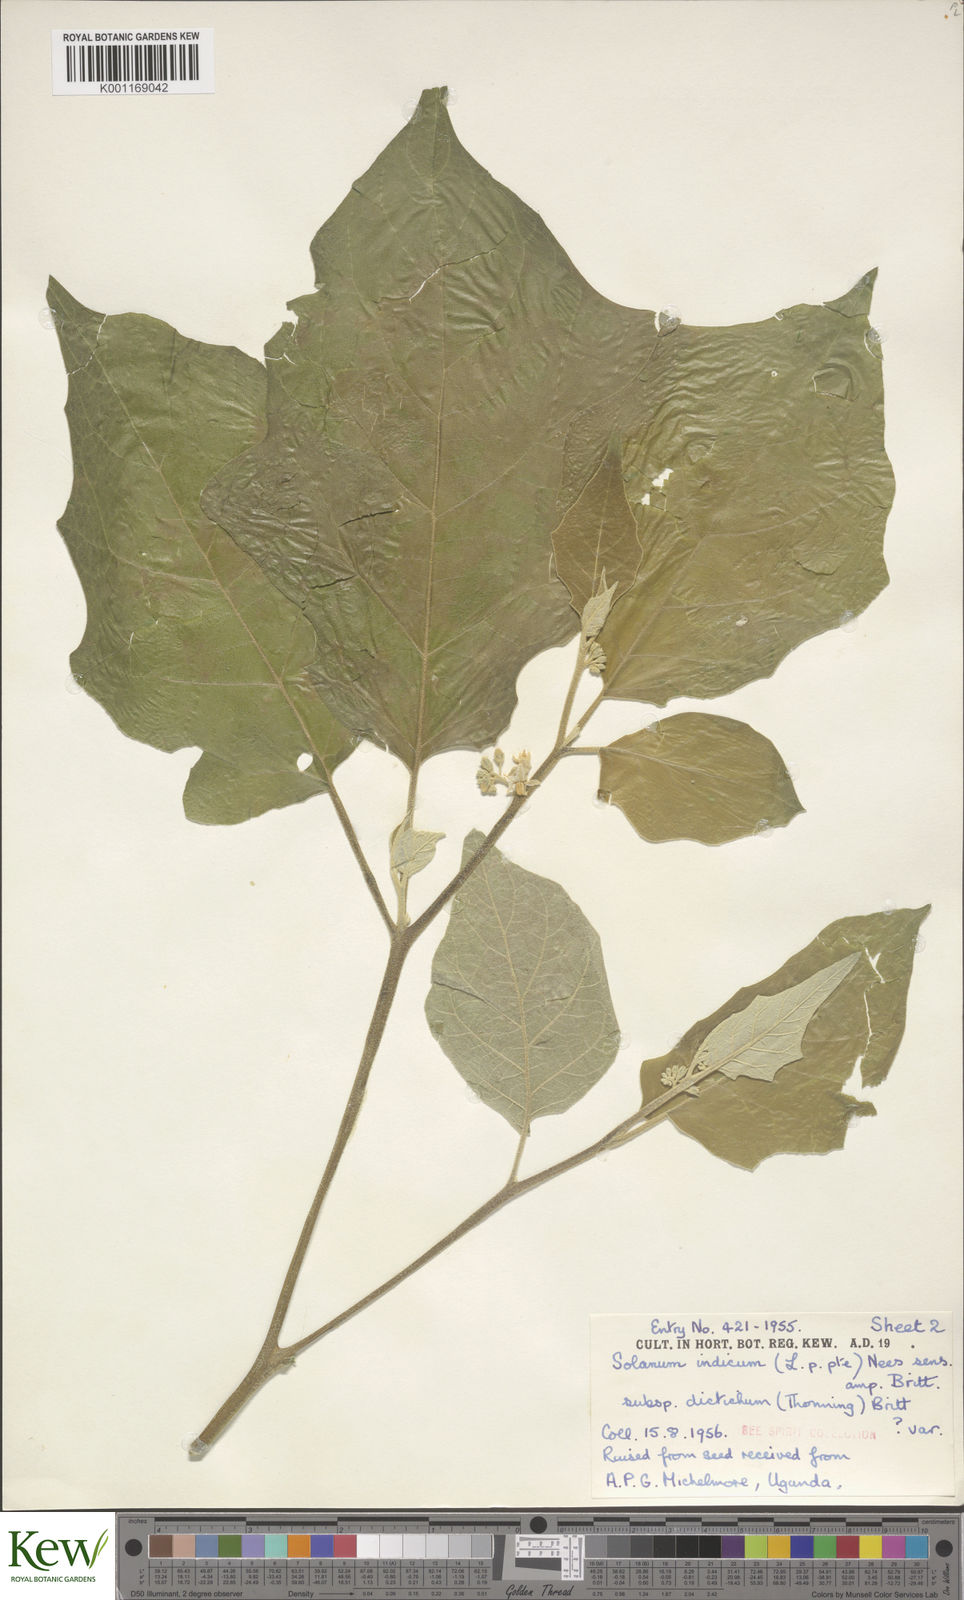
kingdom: Plantae
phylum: Tracheophyta
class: Magnoliopsida
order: Solanales
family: Solanaceae
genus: Solanum
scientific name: Solanum violaceum
